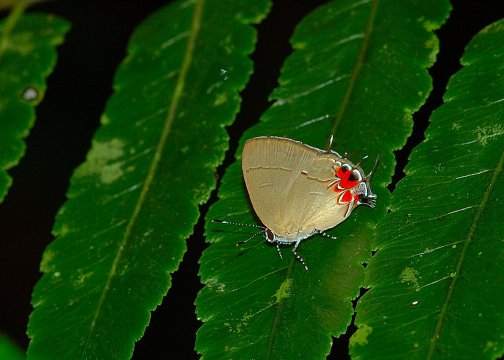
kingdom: Animalia
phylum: Arthropoda
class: Insecta
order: Lepidoptera
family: Lycaenidae
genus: Thecla
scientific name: Thecla cerata
